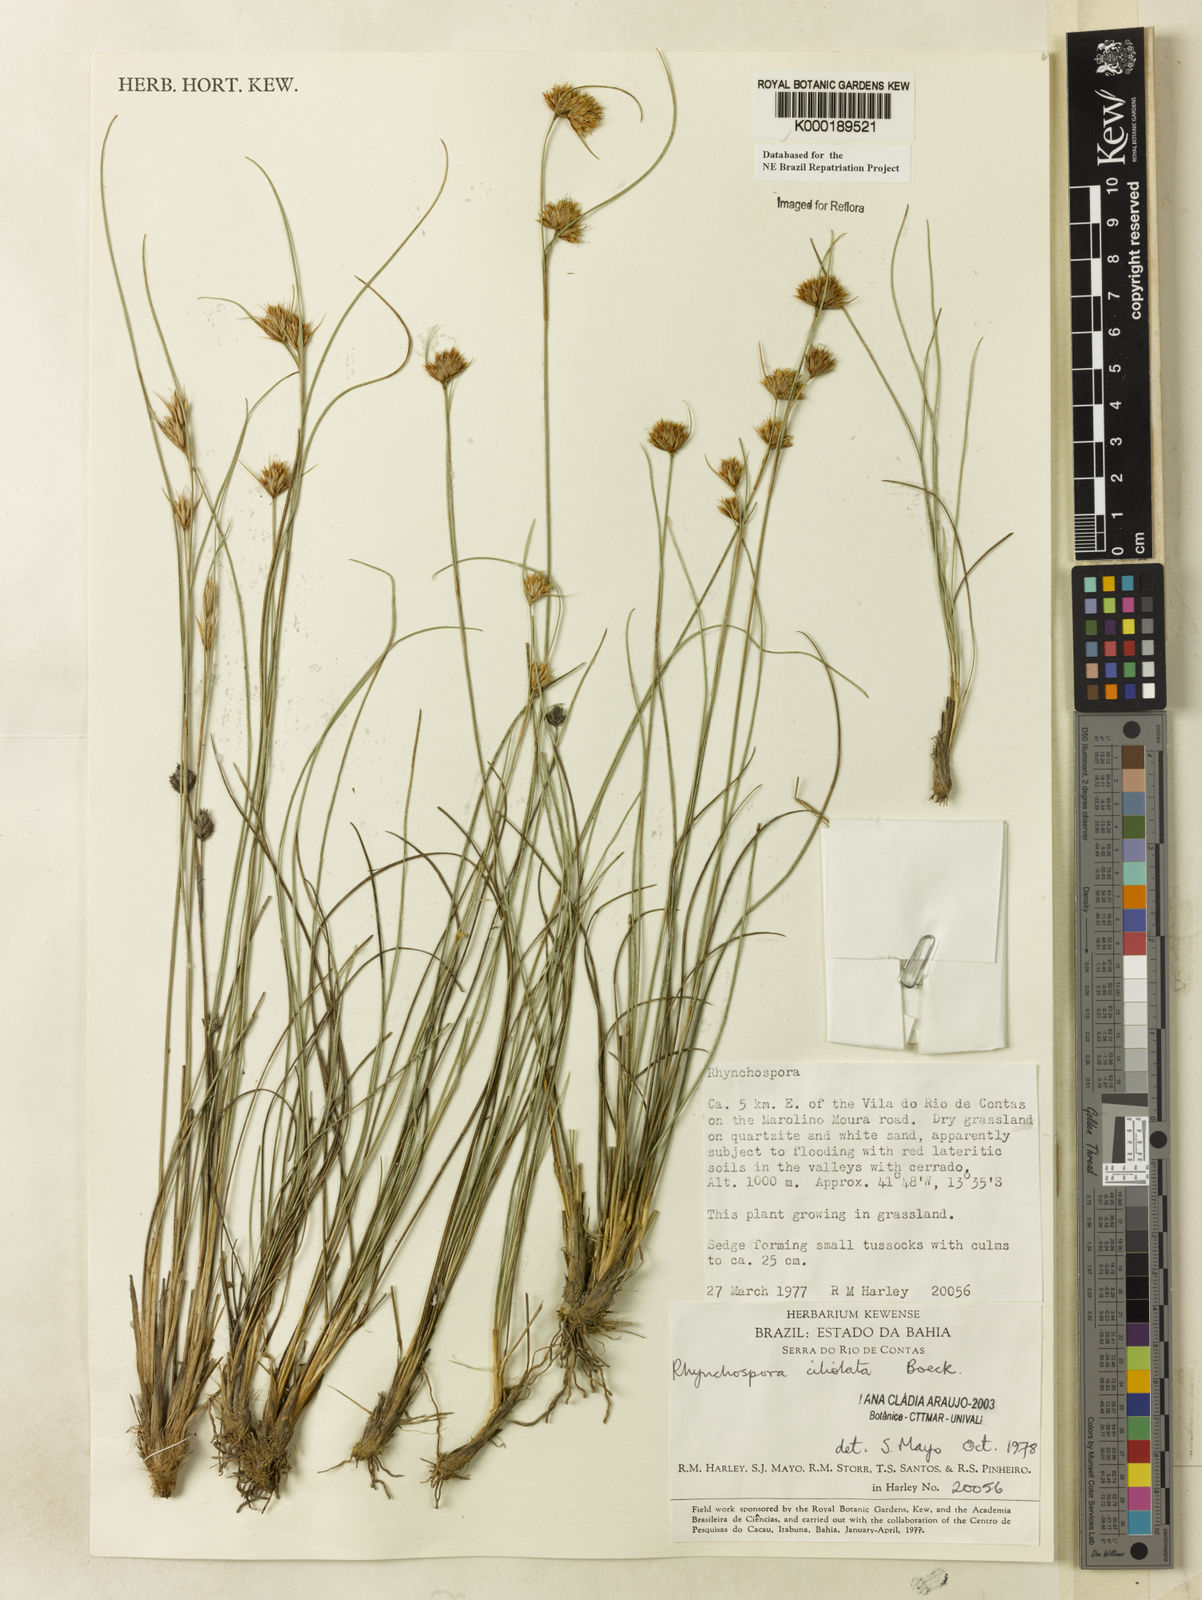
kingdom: Plantae
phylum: Tracheophyta
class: Liliopsida
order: Poales
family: Cyperaceae
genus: Rhynchospora
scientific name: Rhynchospora ciliolata
